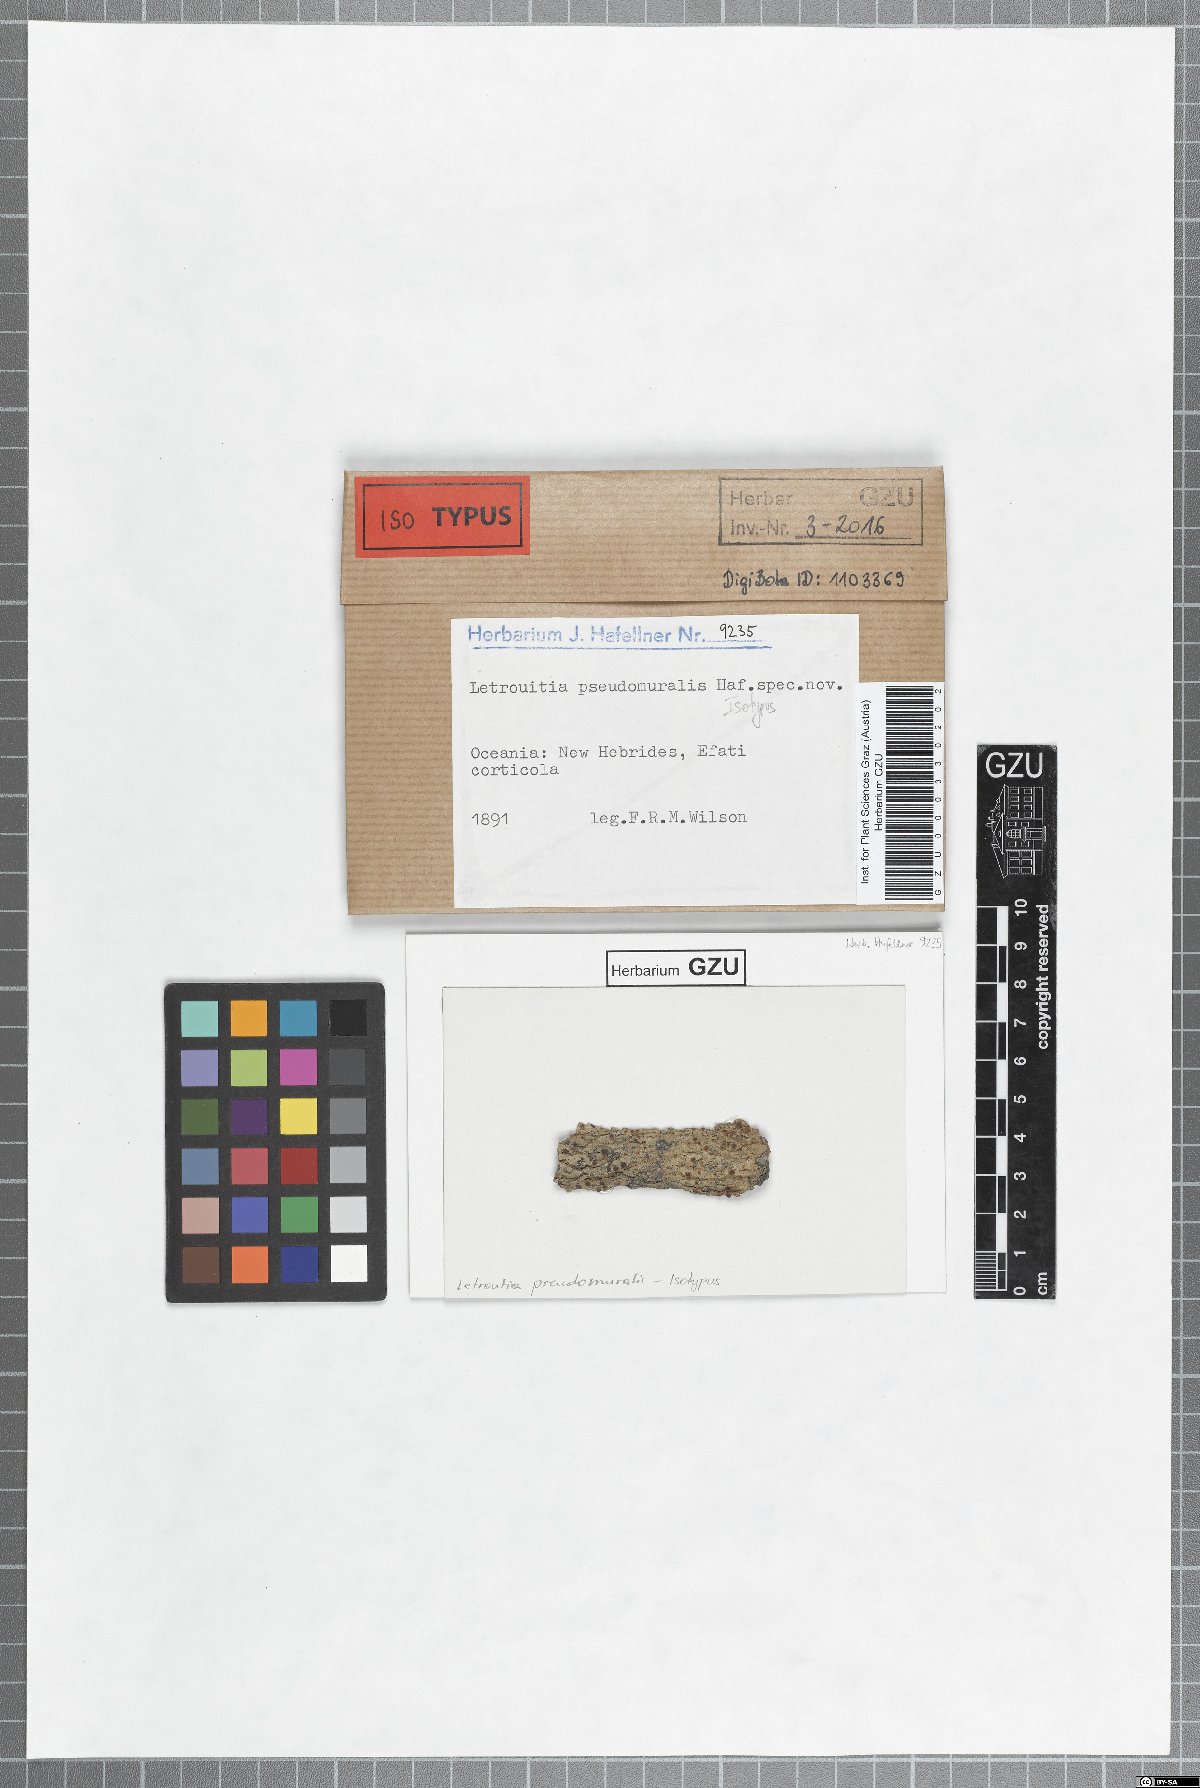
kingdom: Fungi
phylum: Ascomycota
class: Lecanoromycetes
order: Teloschistales
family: Letrouitiaceae
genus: Letrouitia
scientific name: Letrouitia pseudomuralis
